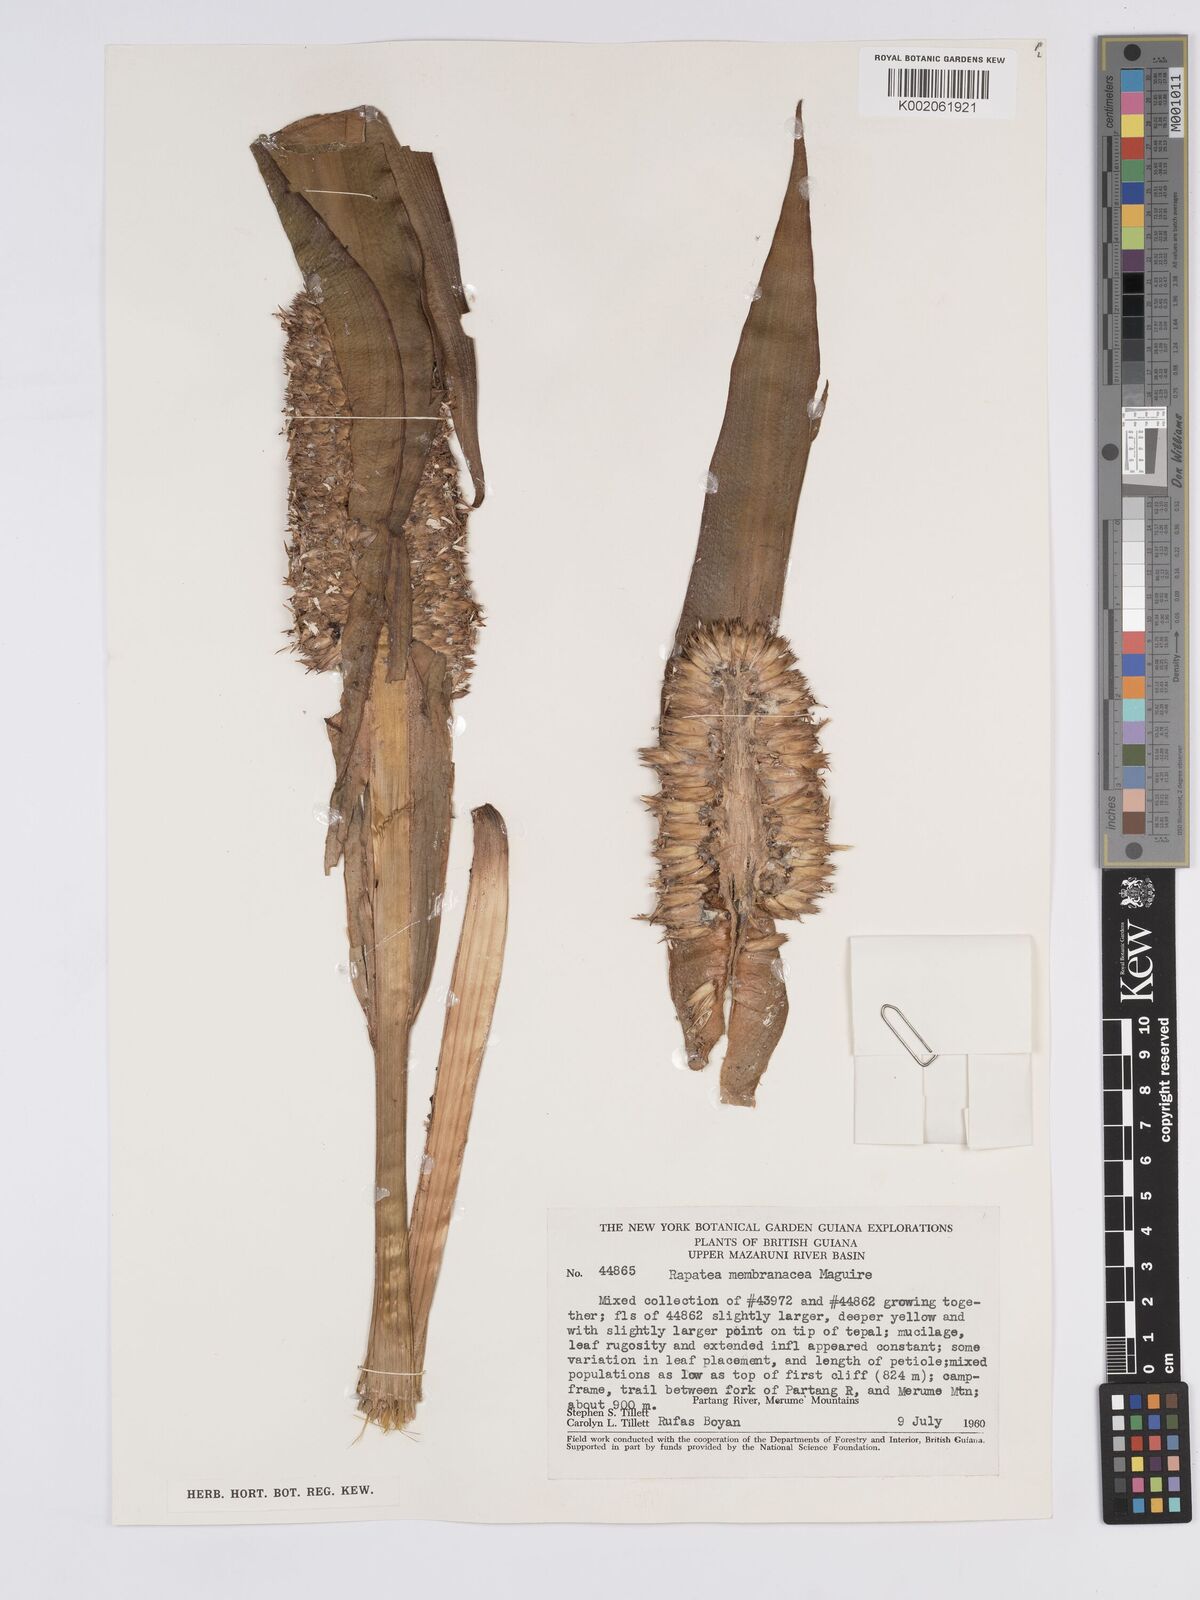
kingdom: Plantae
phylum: Tracheophyta
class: Liliopsida
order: Poales
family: Rapateaceae
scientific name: Rapateaceae
